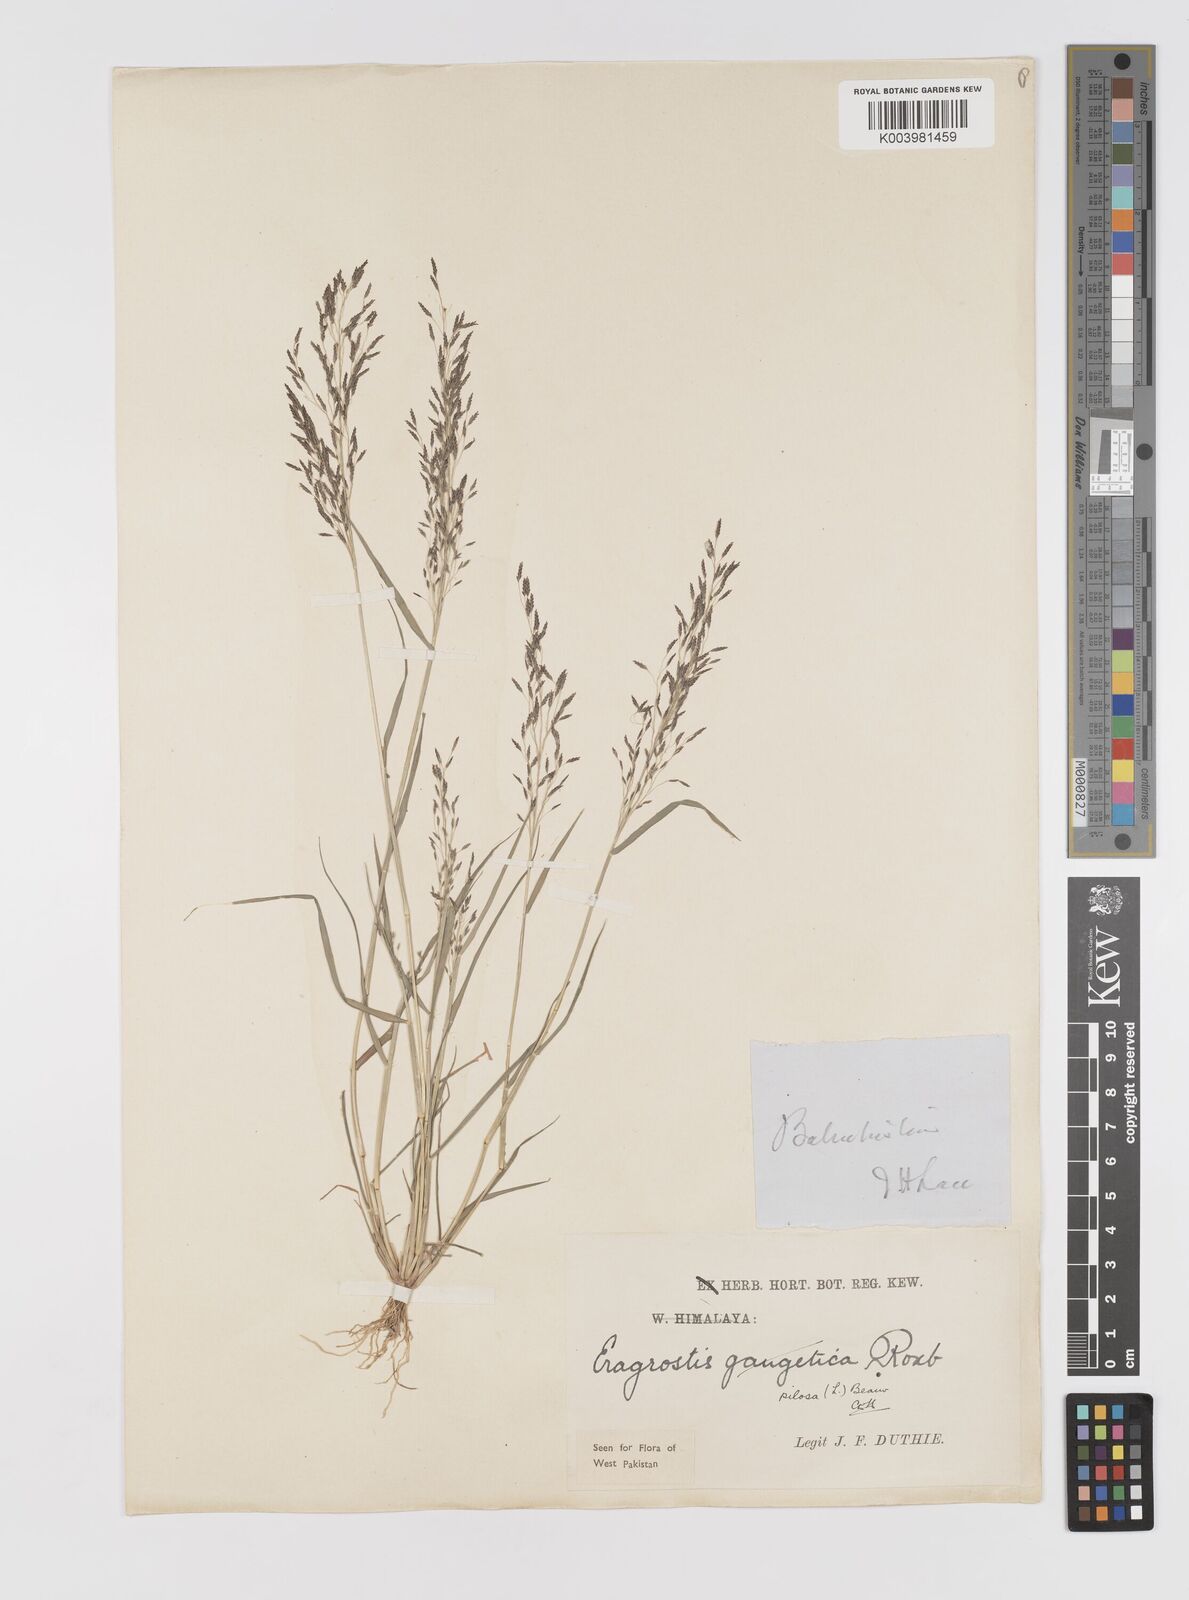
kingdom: Plantae
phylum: Tracheophyta
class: Liliopsida
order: Poales
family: Poaceae
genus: Eragrostis
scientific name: Eragrostis pilosa
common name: Indian lovegrass
